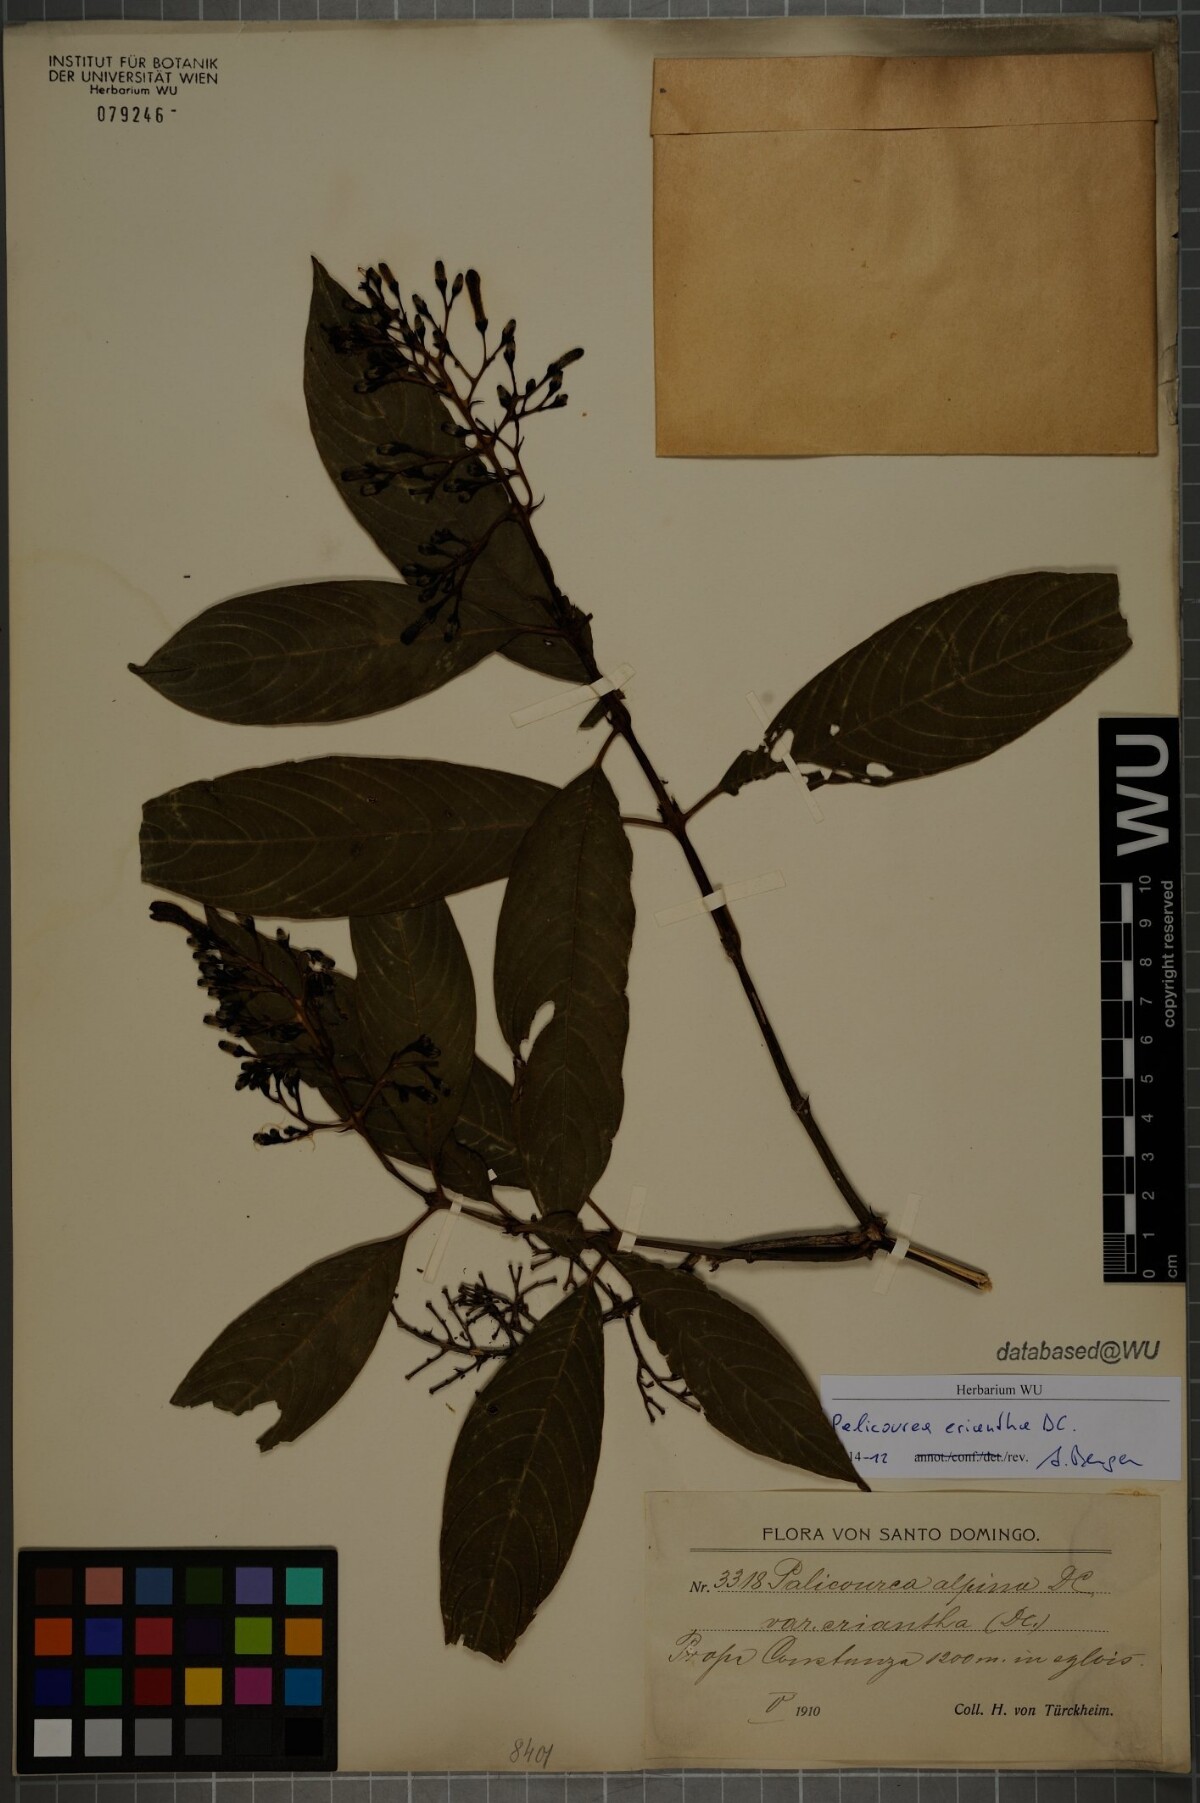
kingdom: Plantae
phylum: Tracheophyta
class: Magnoliopsida
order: Gentianales
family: Rubiaceae
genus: Palicourea
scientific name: Palicourea eriantha
